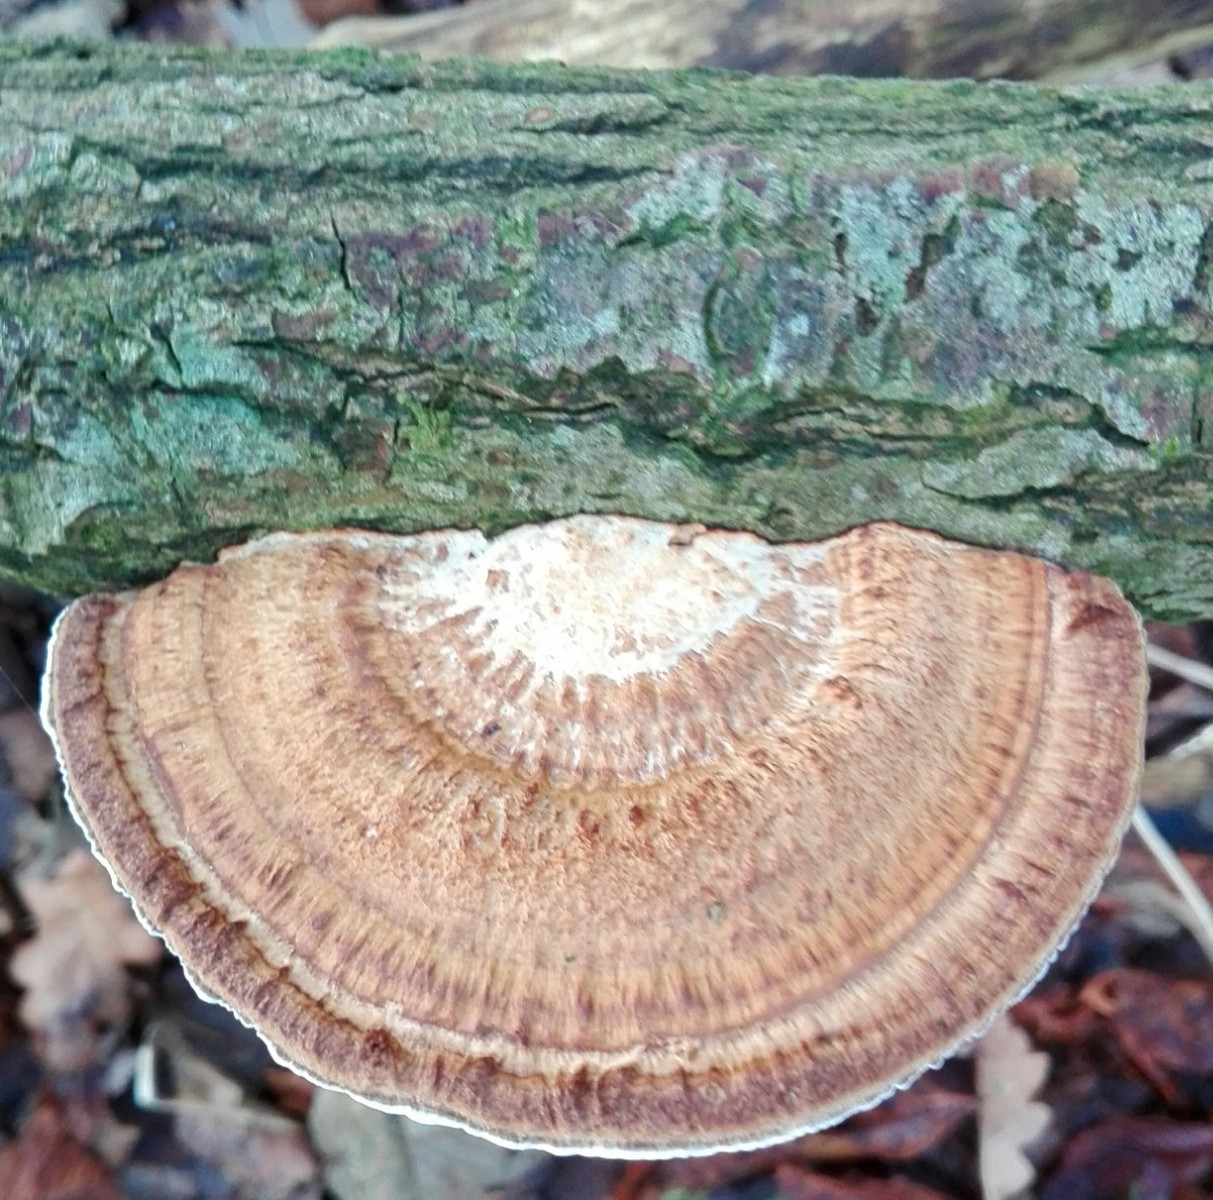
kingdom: Fungi
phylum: Basidiomycota
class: Agaricomycetes
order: Polyporales
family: Polyporaceae
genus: Daedaleopsis
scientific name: Daedaleopsis confragosa
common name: rødmende læderporesvamp
